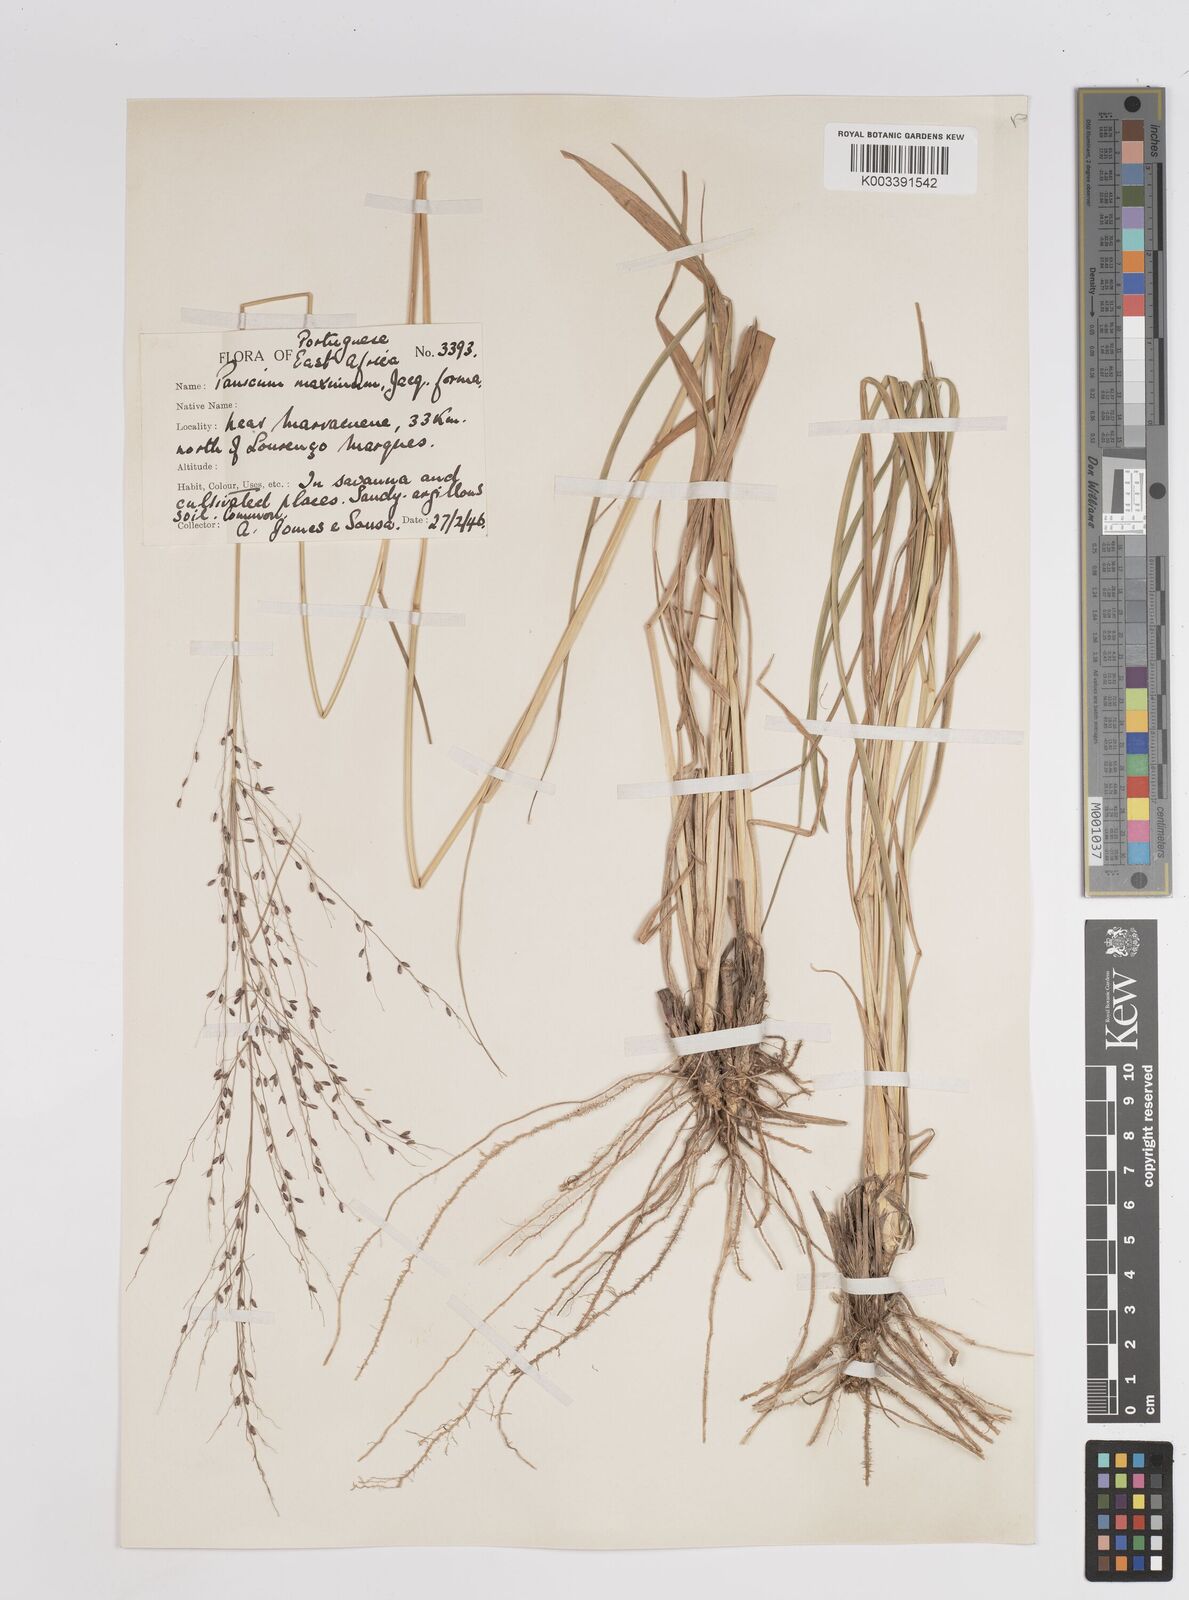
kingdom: Plantae
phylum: Tracheophyta
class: Liliopsida
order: Poales
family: Poaceae
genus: Megathyrsus
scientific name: Megathyrsus maximus
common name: Guineagrass
